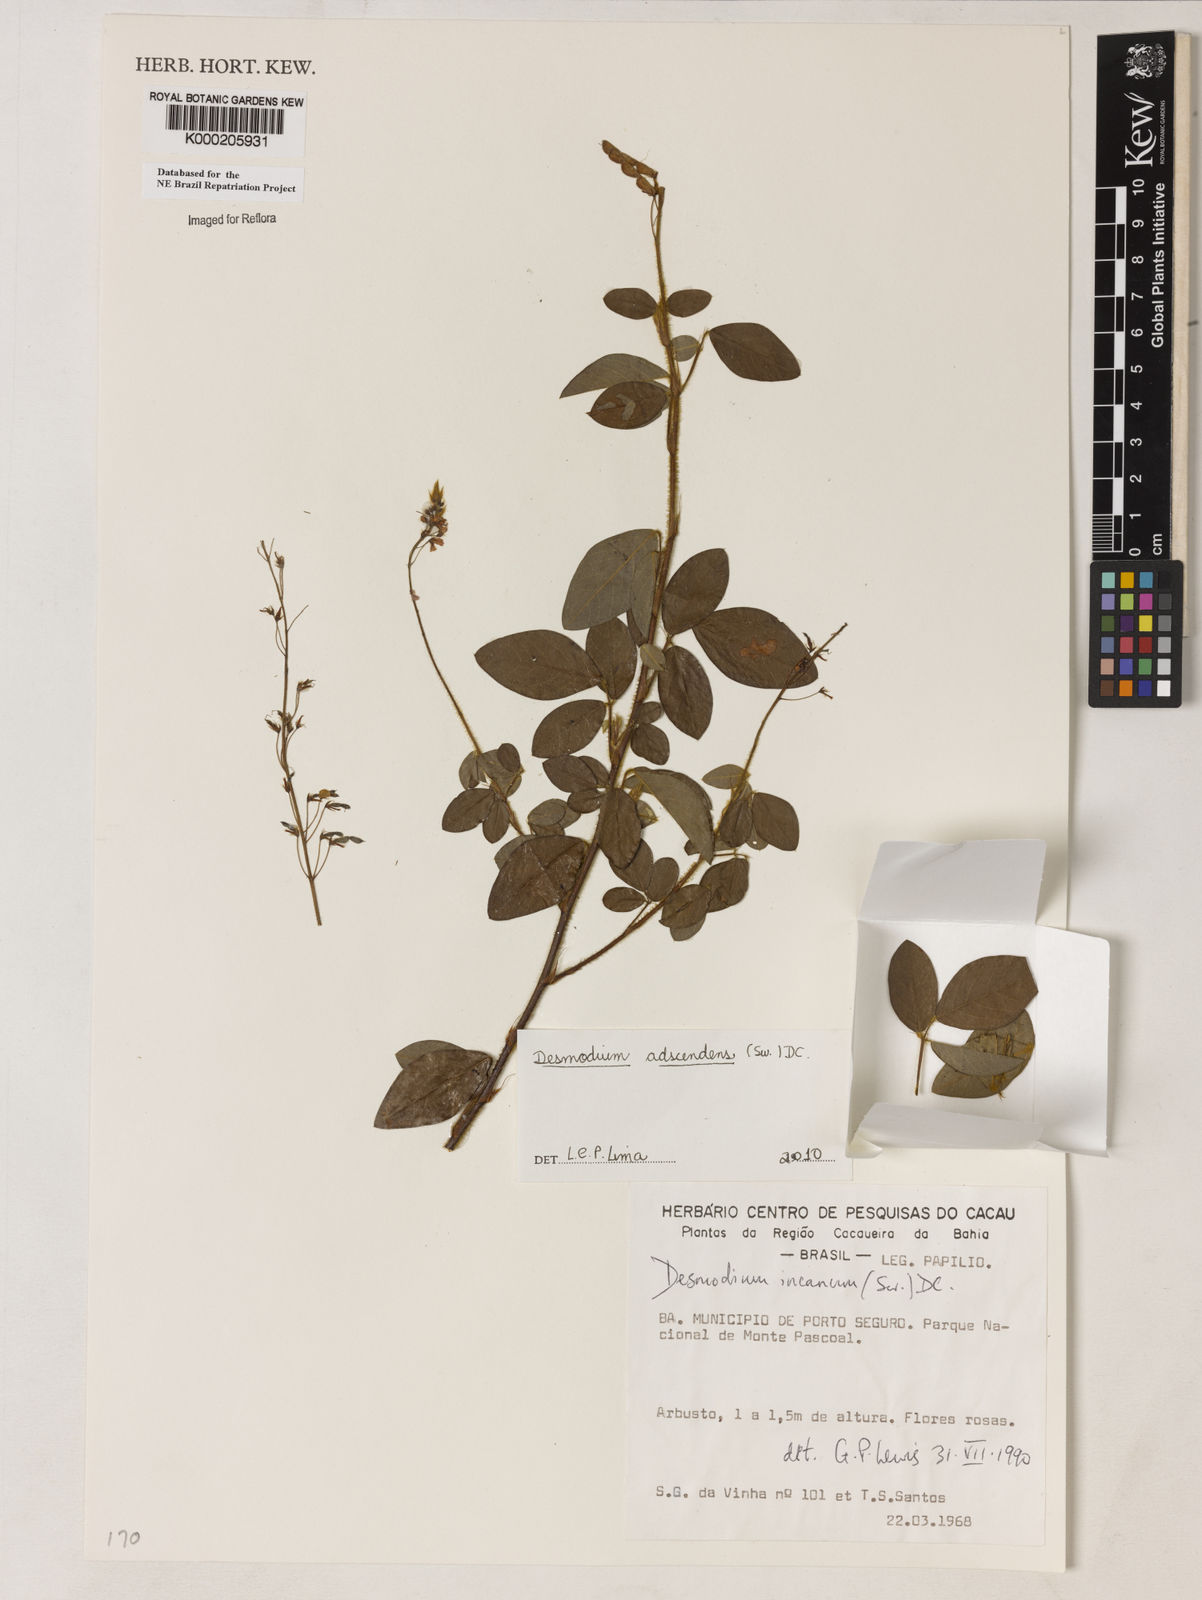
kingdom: Plantae
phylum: Tracheophyta
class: Magnoliopsida
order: Fabales
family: Fabaceae
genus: Desmodium
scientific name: Desmodium incanum
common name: Tickclover
